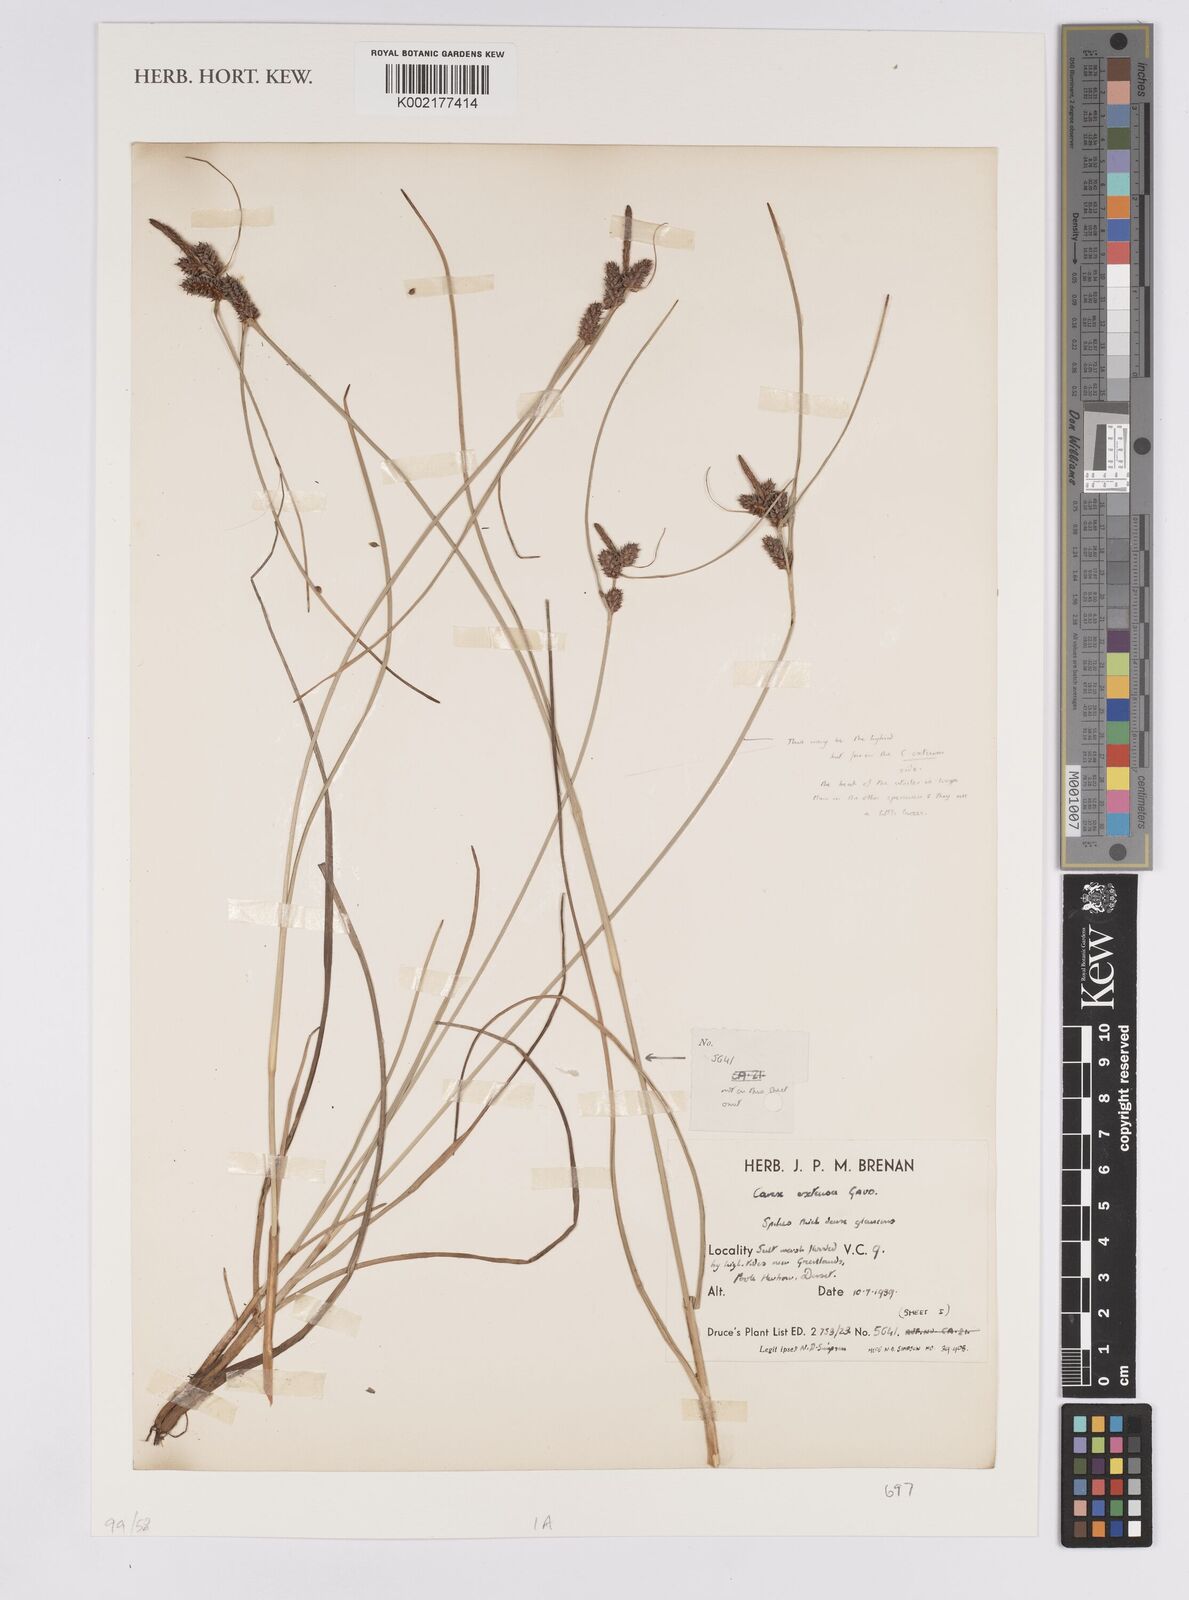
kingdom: Plantae
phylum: Tracheophyta
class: Liliopsida
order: Poales
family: Cyperaceae
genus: Carex
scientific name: Carex extensa
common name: Long-bracted sedge
